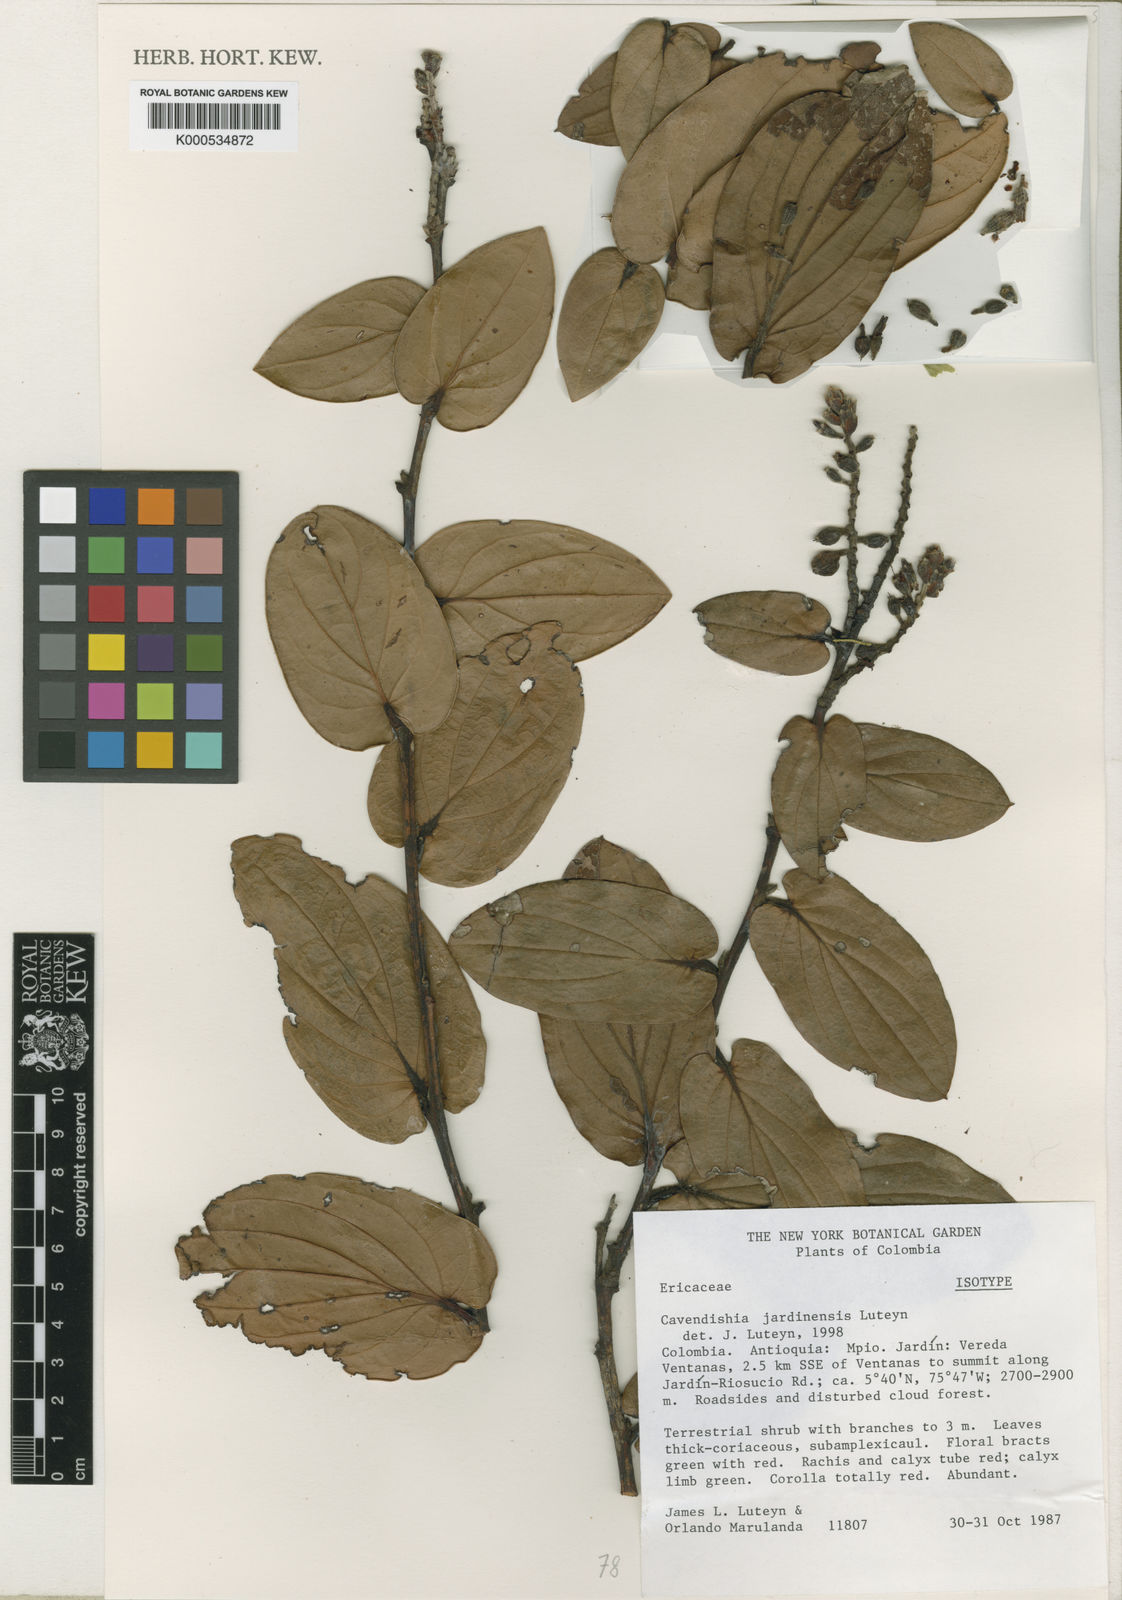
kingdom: Plantae
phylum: Tracheophyta
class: Magnoliopsida
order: Ericales
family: Ericaceae
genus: Cavendishia
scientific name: Cavendishia jardinensis
